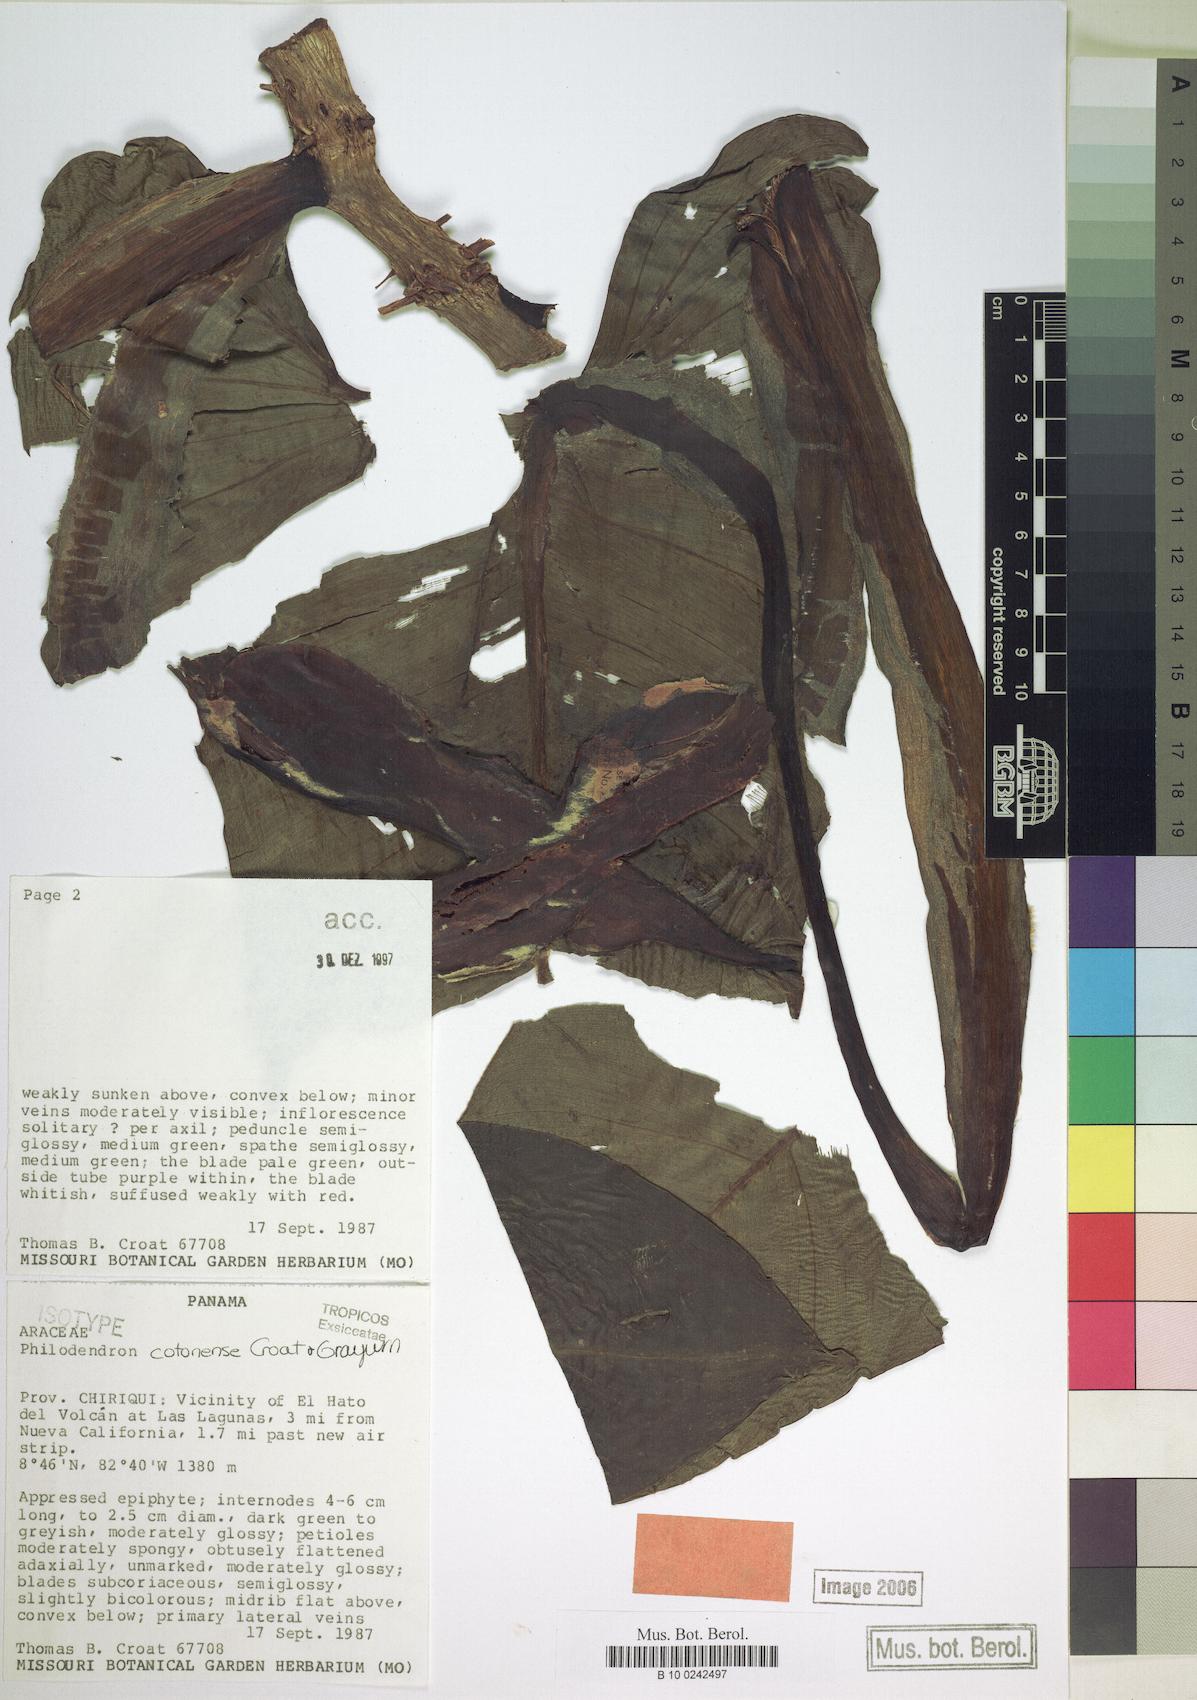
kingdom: Plantae
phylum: Tracheophyta
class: Liliopsida
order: Alismatales
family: Araceae
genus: Philodendron
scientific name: Philodendron cotonense
